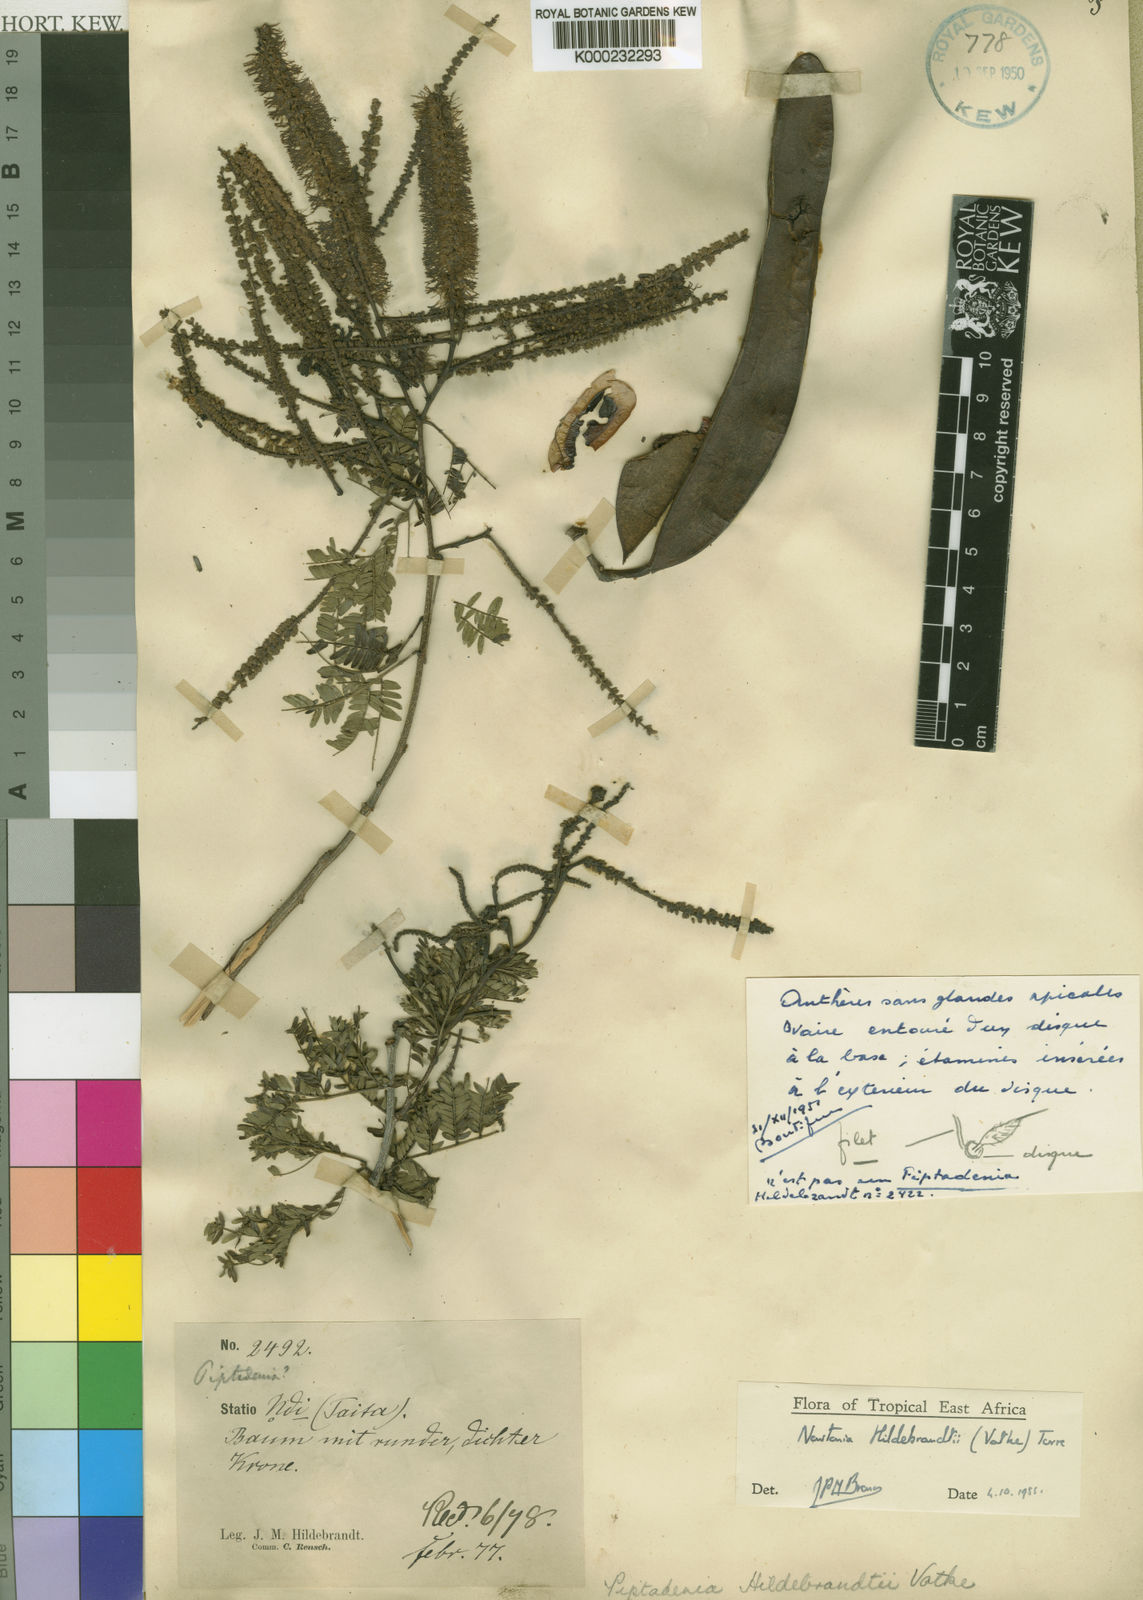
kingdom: Plantae
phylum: Tracheophyta
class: Magnoliopsida
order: Fabales
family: Fabaceae
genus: Newtonia
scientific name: Newtonia hildebrandtii
